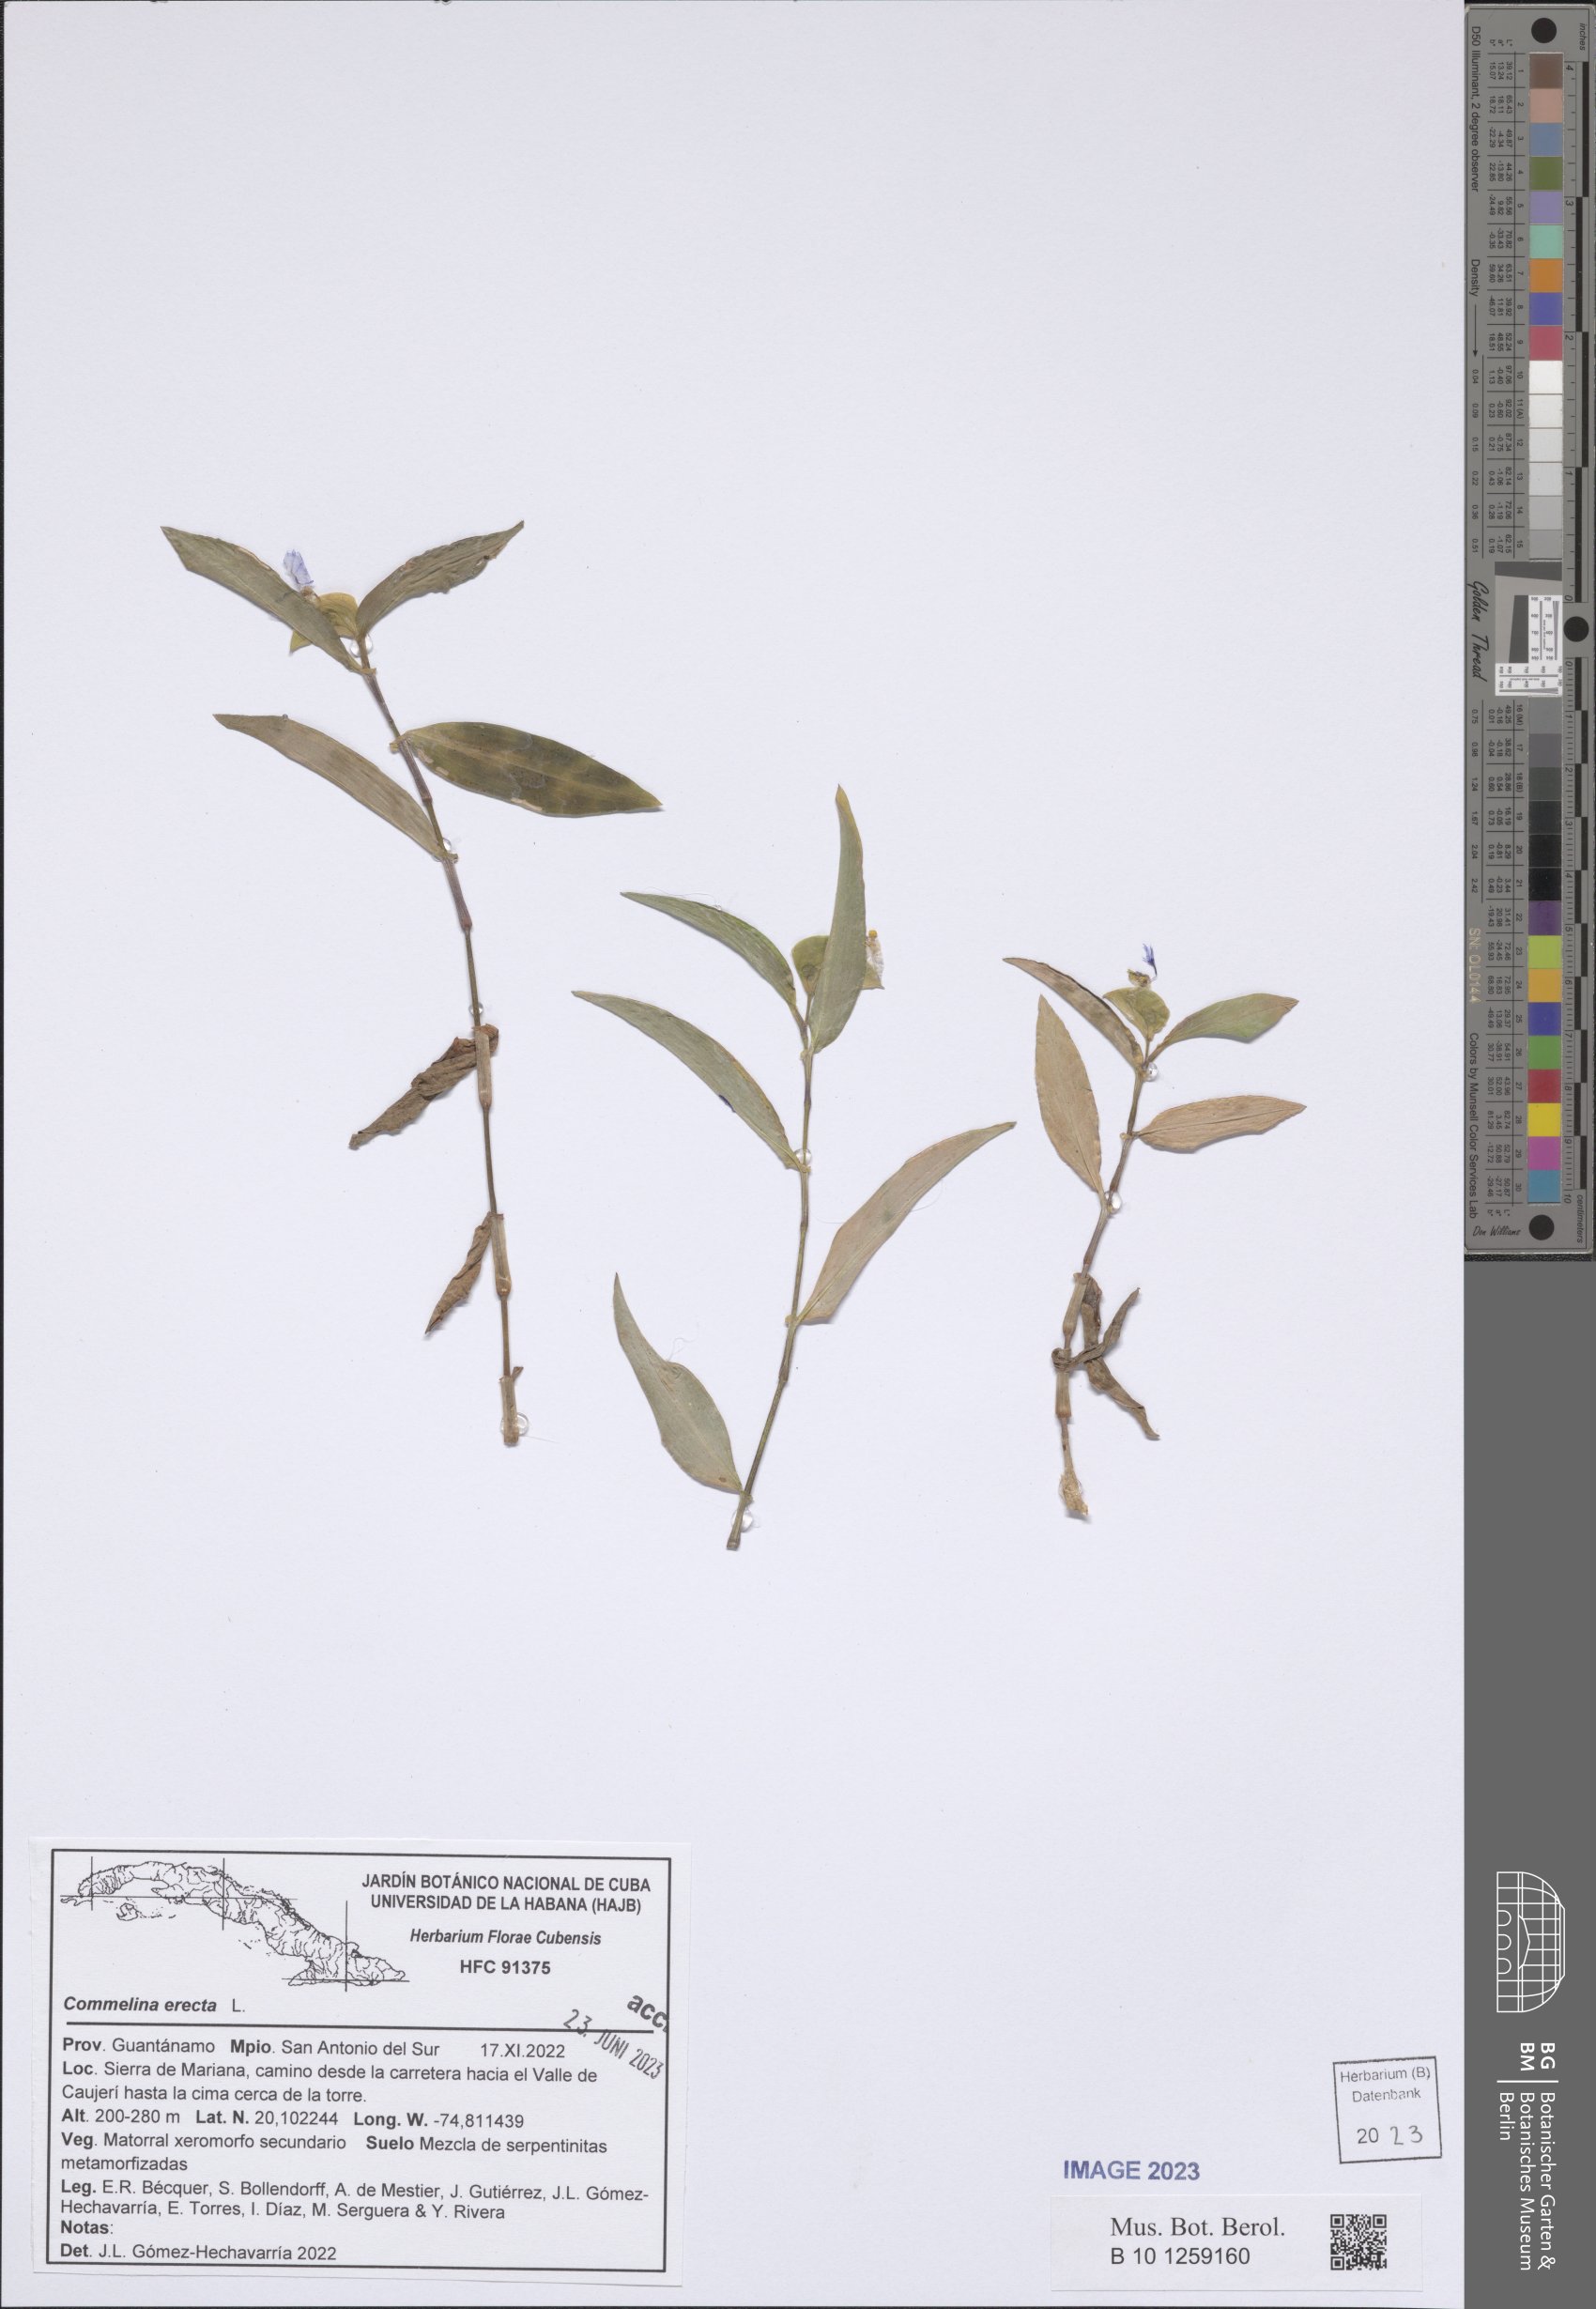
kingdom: Plantae
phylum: Tracheophyta
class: Liliopsida
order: Commelinales
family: Commelinaceae
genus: Commelina
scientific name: Commelina erecta
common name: Blousel blommetjie
